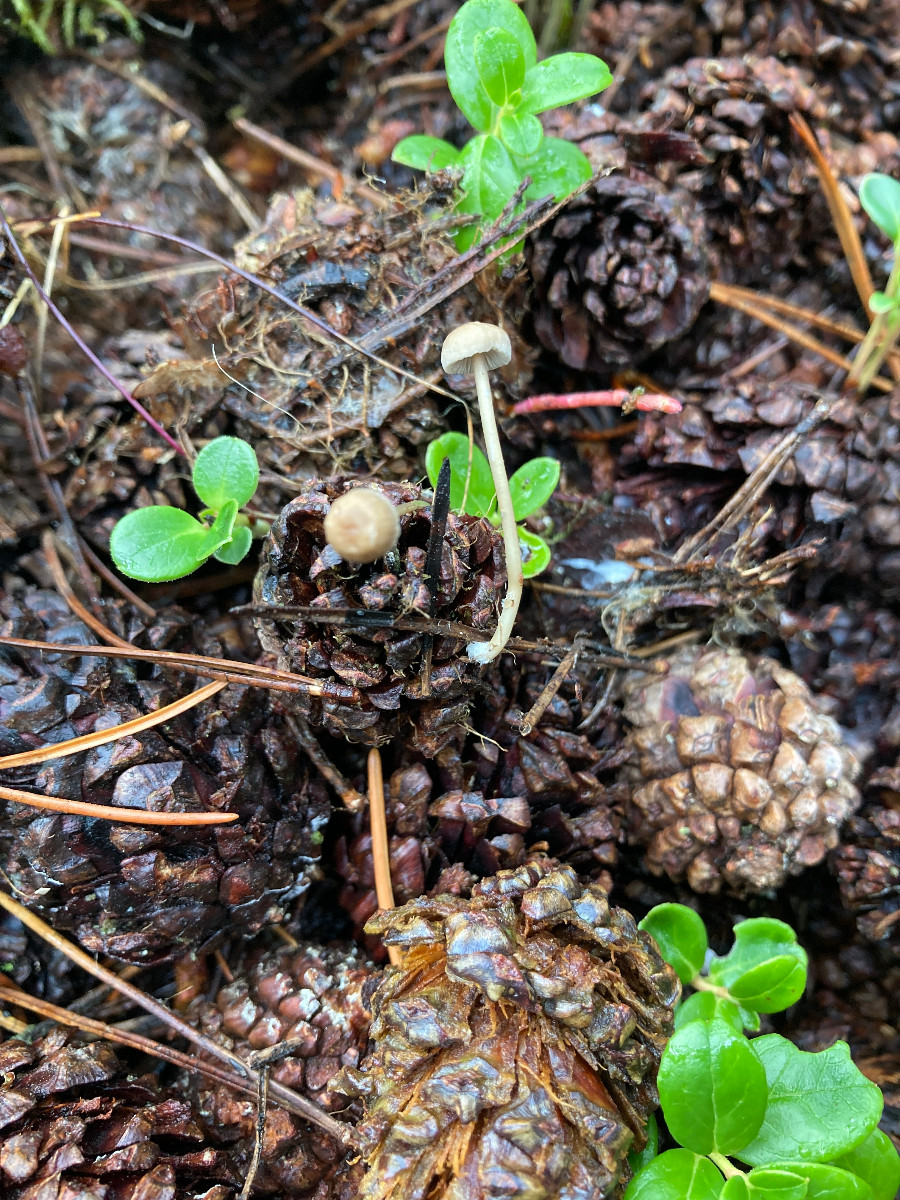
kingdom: Fungi
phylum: Basidiomycota
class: Agaricomycetes
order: Agaricales
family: Mycenaceae
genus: Mycena
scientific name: Mycena
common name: huesvamp
